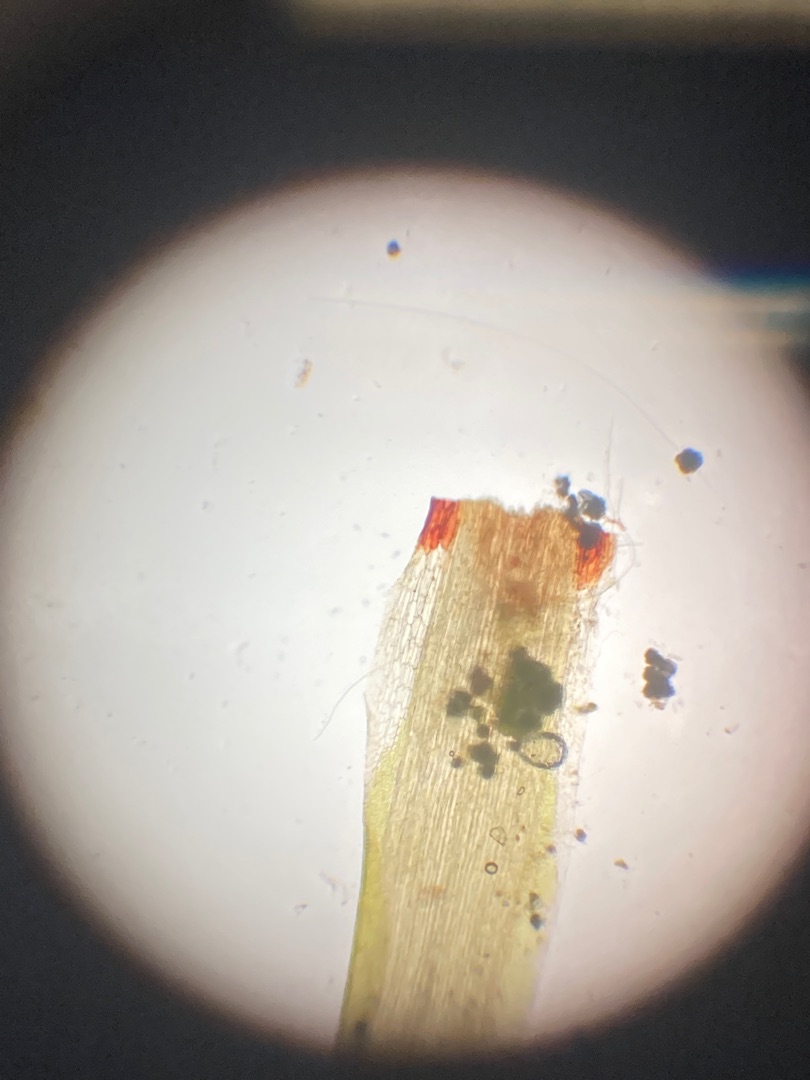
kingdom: Plantae
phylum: Bryophyta
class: Bryopsida
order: Dicranales
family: Leucobryaceae
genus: Campylopus
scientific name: Campylopus introflexus
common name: Stjerne-bredribbe
